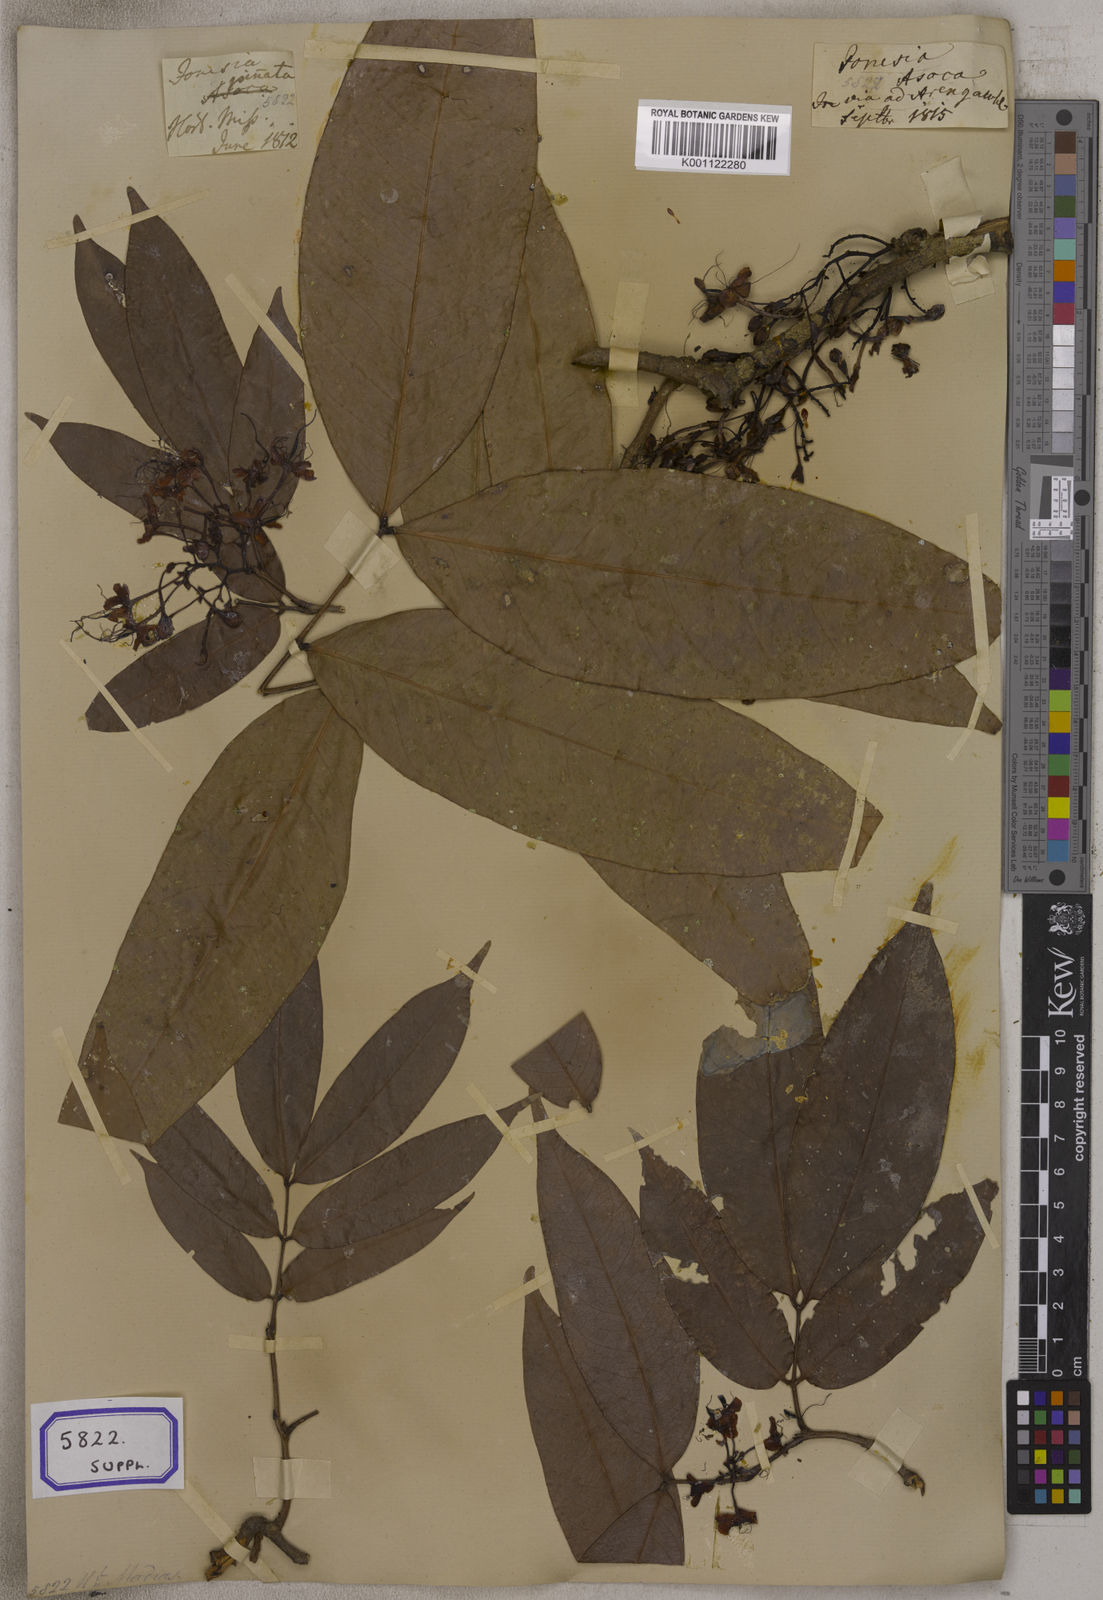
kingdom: Plantae
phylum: Tracheophyta
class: Magnoliopsida
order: Fabales
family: Fabaceae
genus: Saraca
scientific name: Saraca asoca
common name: Asoka-tree
